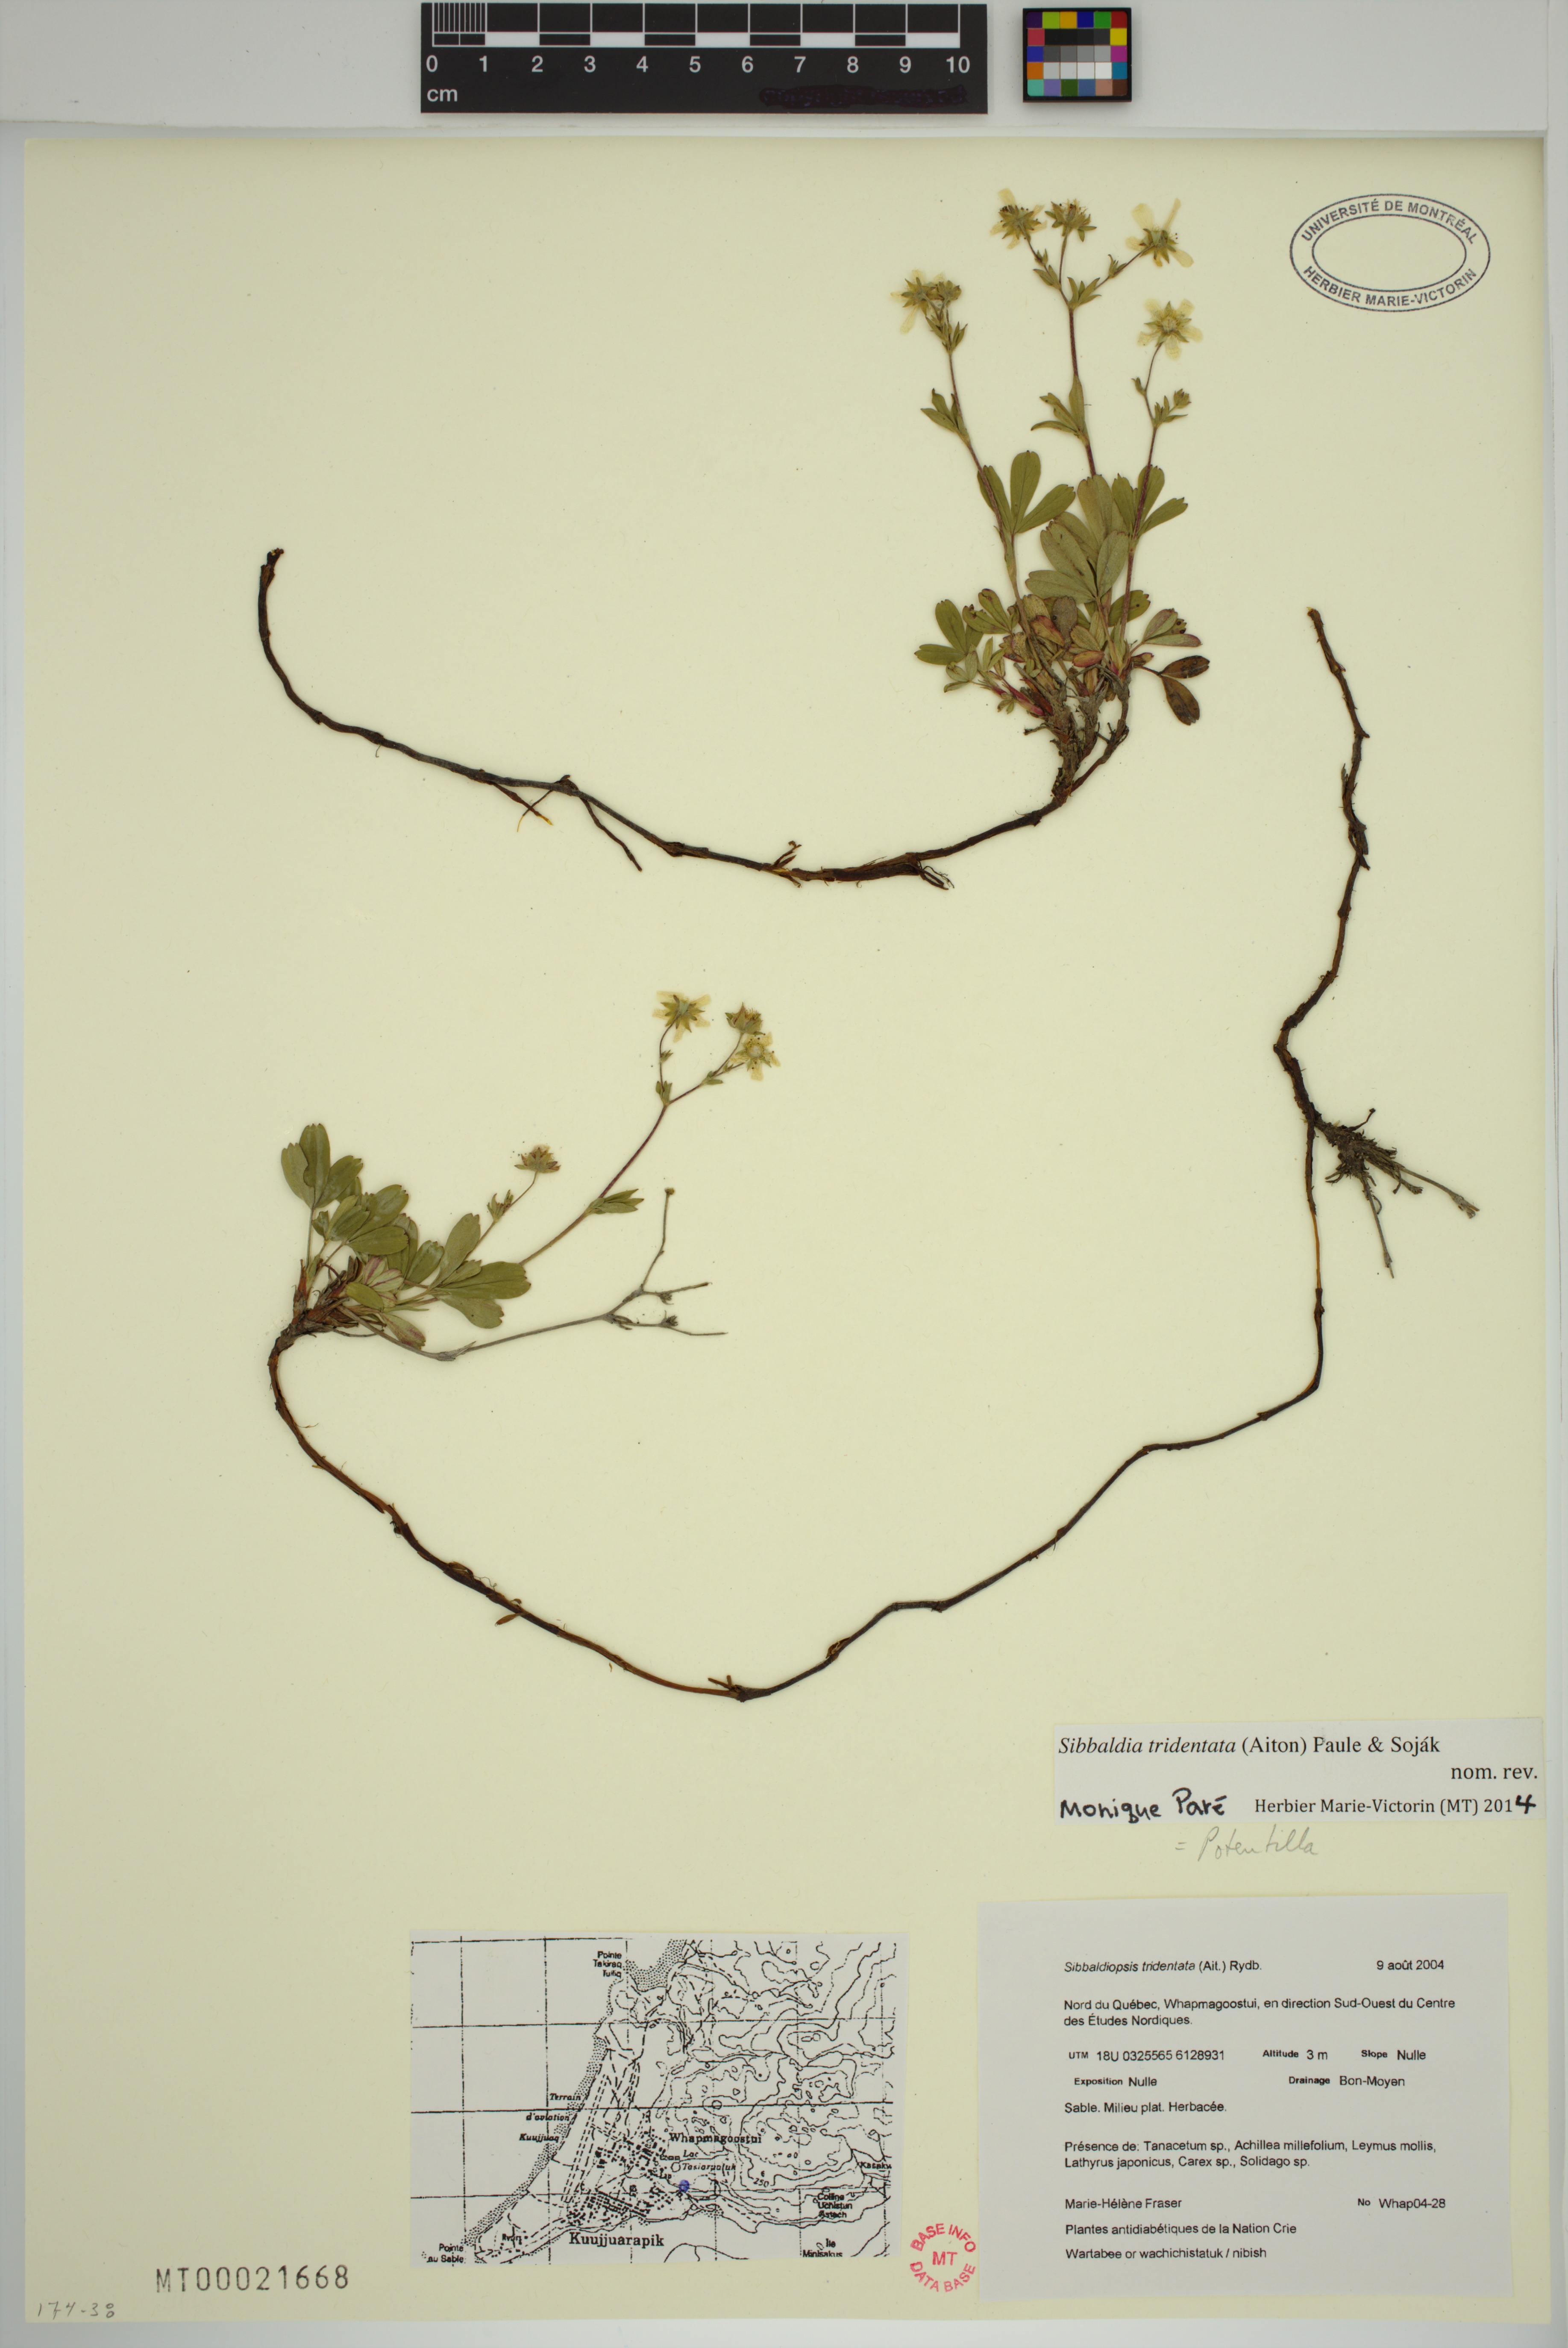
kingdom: Plantae
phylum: Tracheophyta
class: Magnoliopsida
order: Rosales
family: Rosaceae
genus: Sibbaldia
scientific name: Sibbaldia tridentata
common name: Three-toothed cinquefoil
